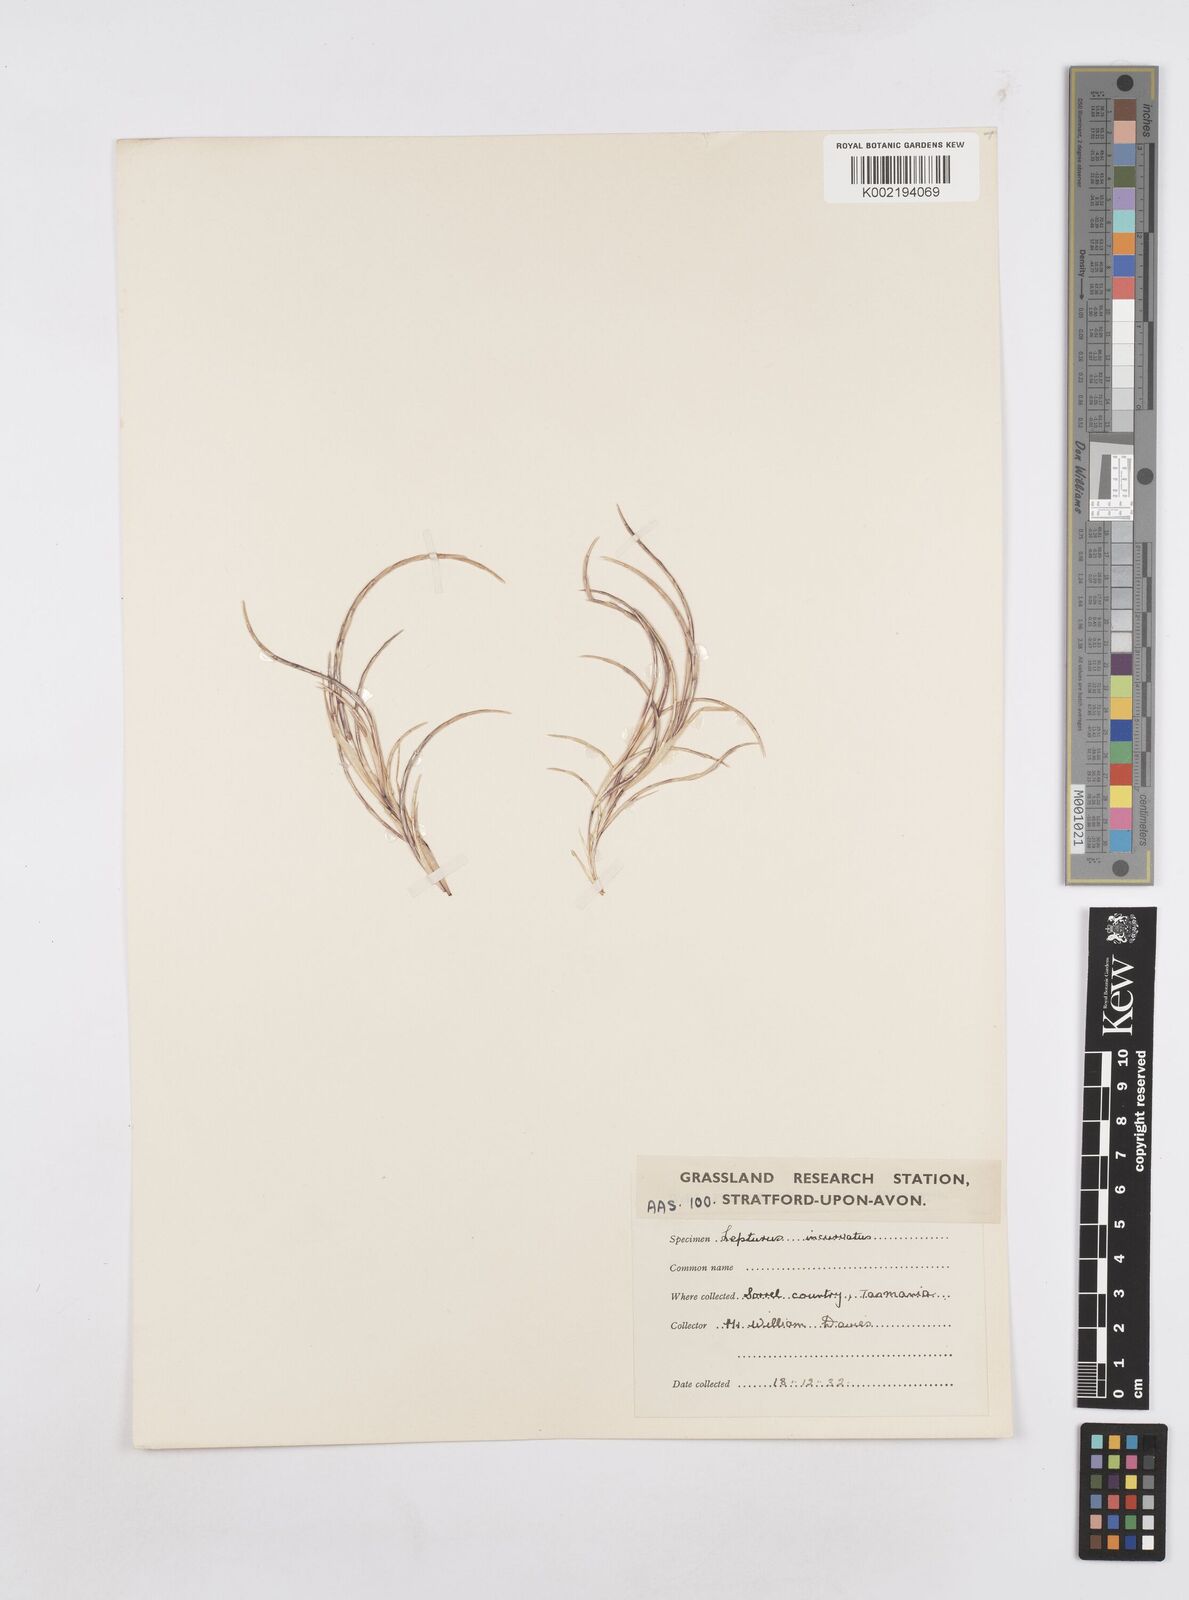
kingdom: Plantae
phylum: Tracheophyta
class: Liliopsida
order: Poales
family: Poaceae
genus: Parapholis
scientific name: Parapholis incurva
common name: Curved sicklegrass
